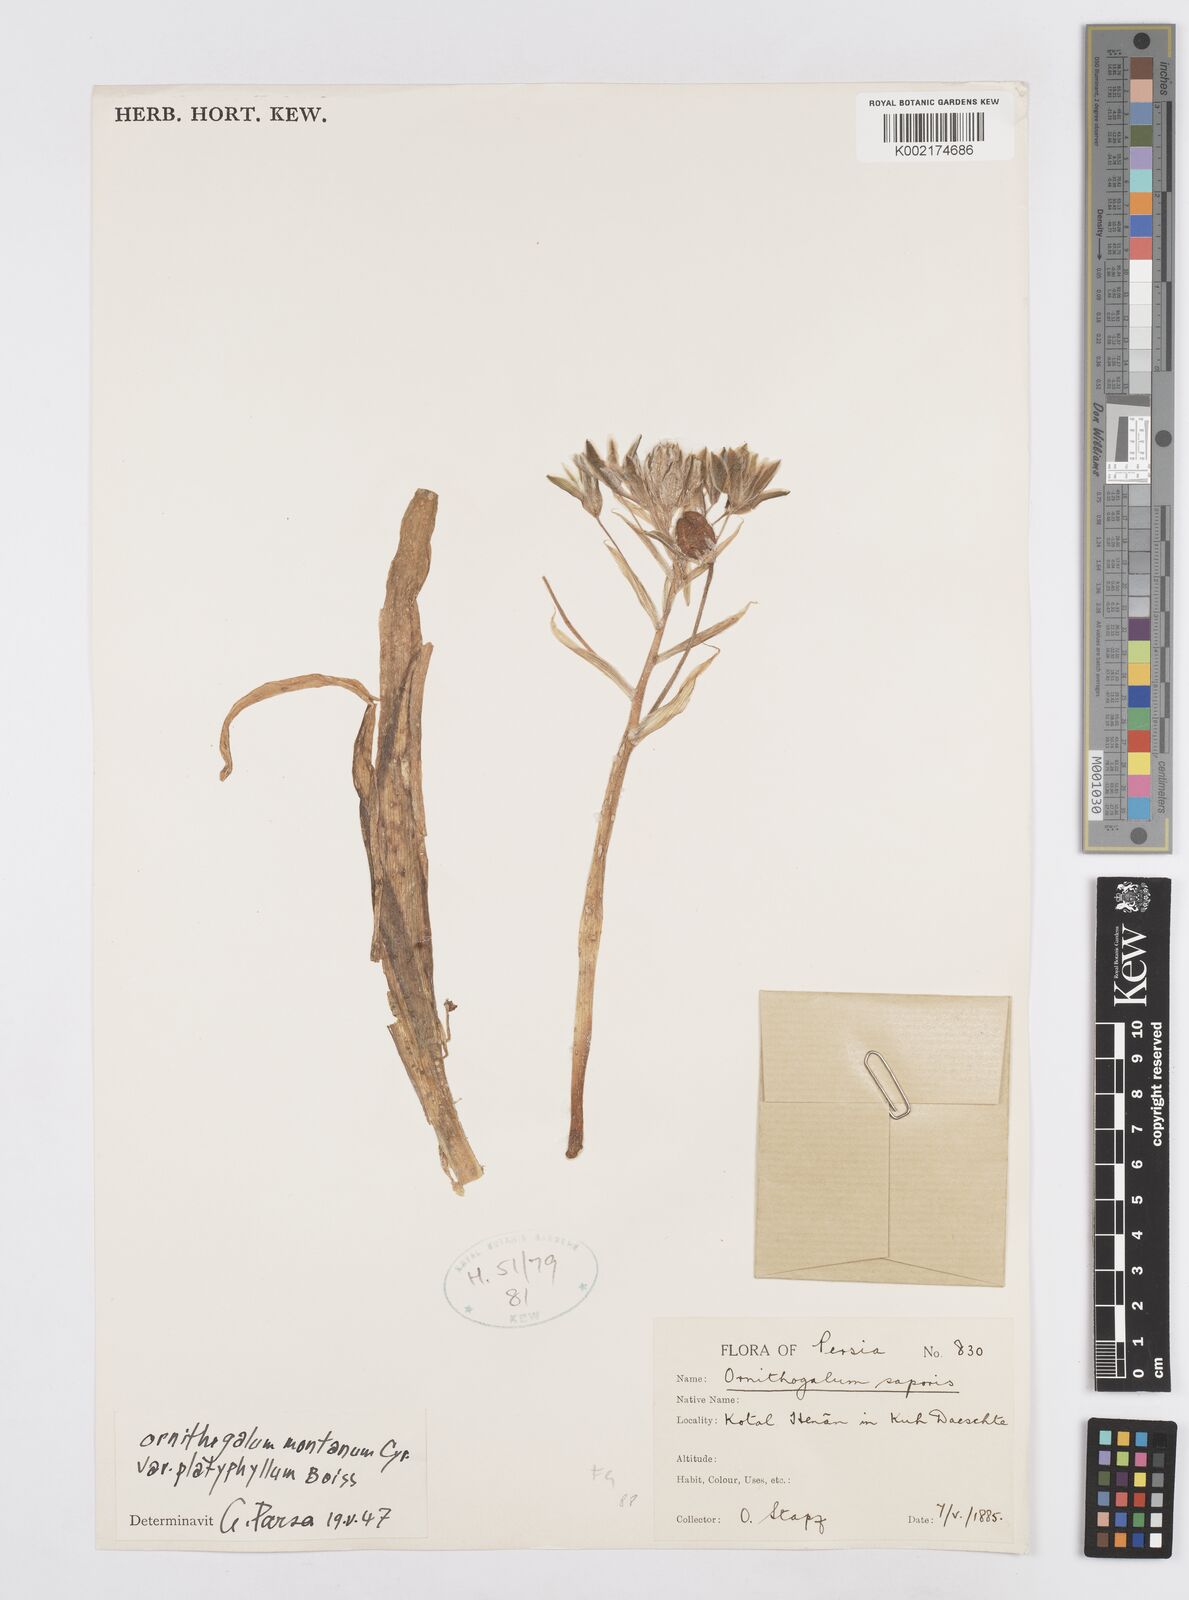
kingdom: Plantae
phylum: Tracheophyta
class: Liliopsida
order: Asparagales
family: Asparagaceae
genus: Ornithogalum
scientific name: Ornithogalum
